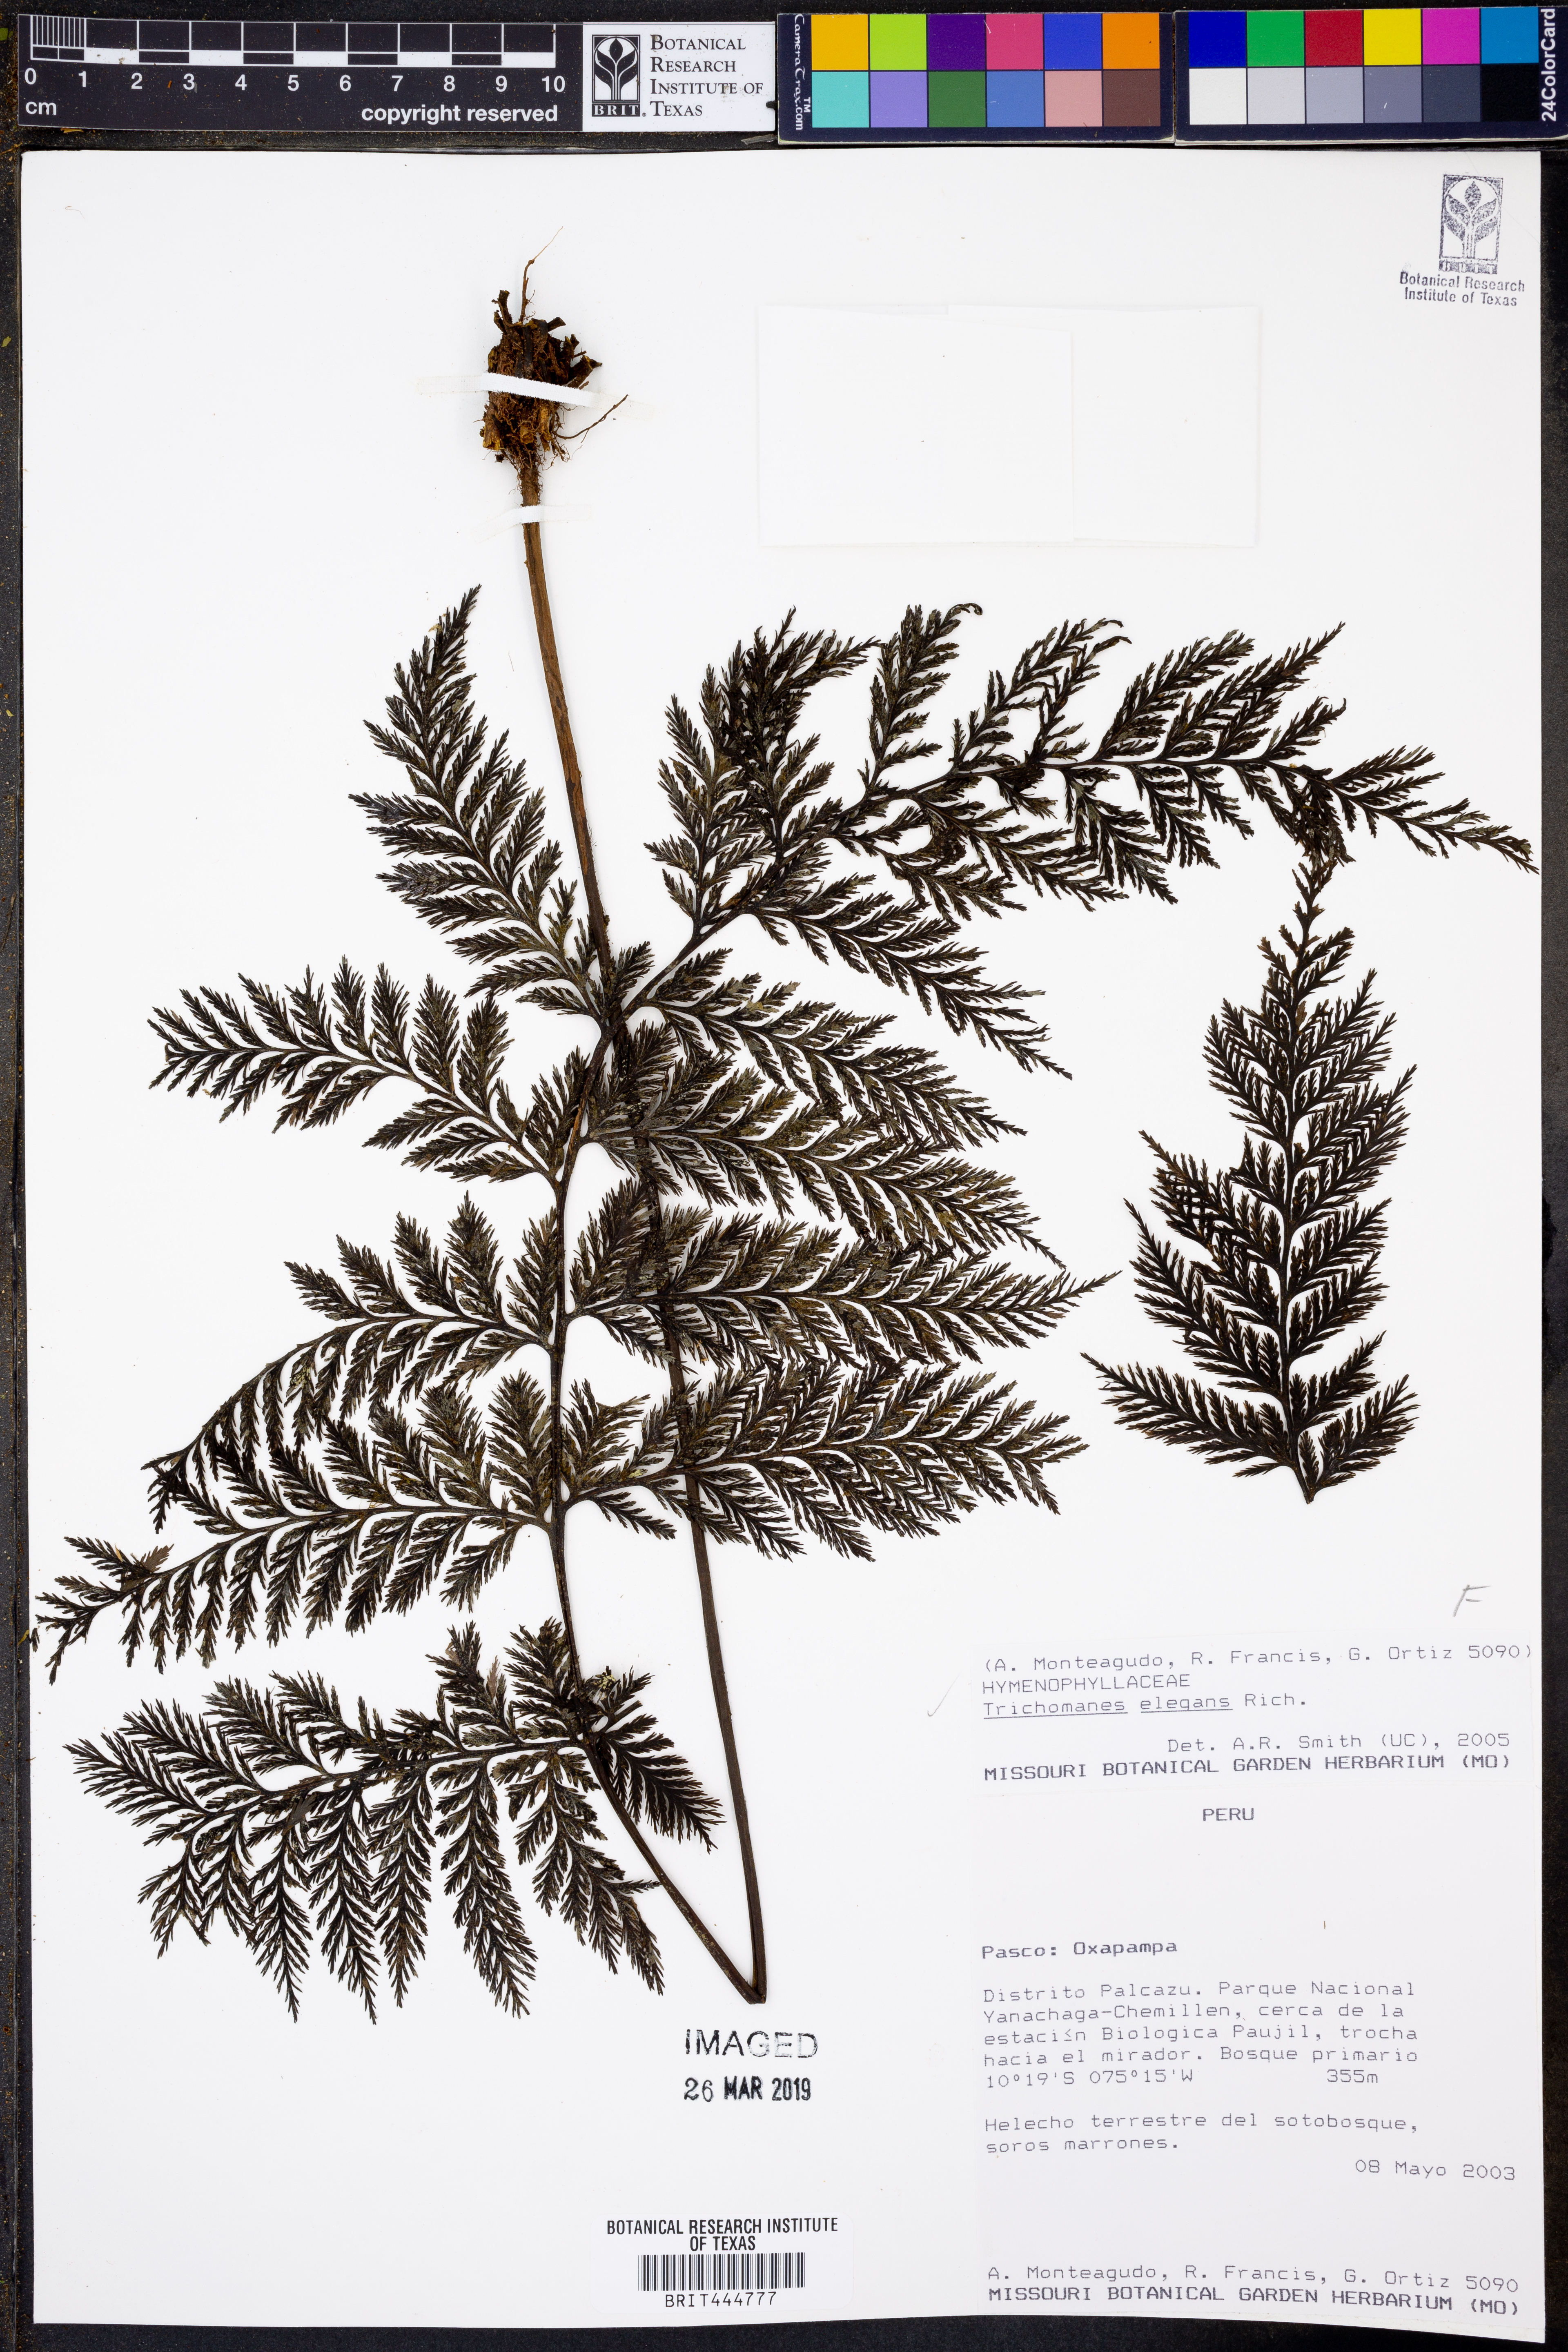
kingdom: Plantae
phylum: Tracheophyta
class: Polypodiopsida
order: Hymenophyllales
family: Hymenophyllaceae
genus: Trichomanes
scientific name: Trichomanes elegans
